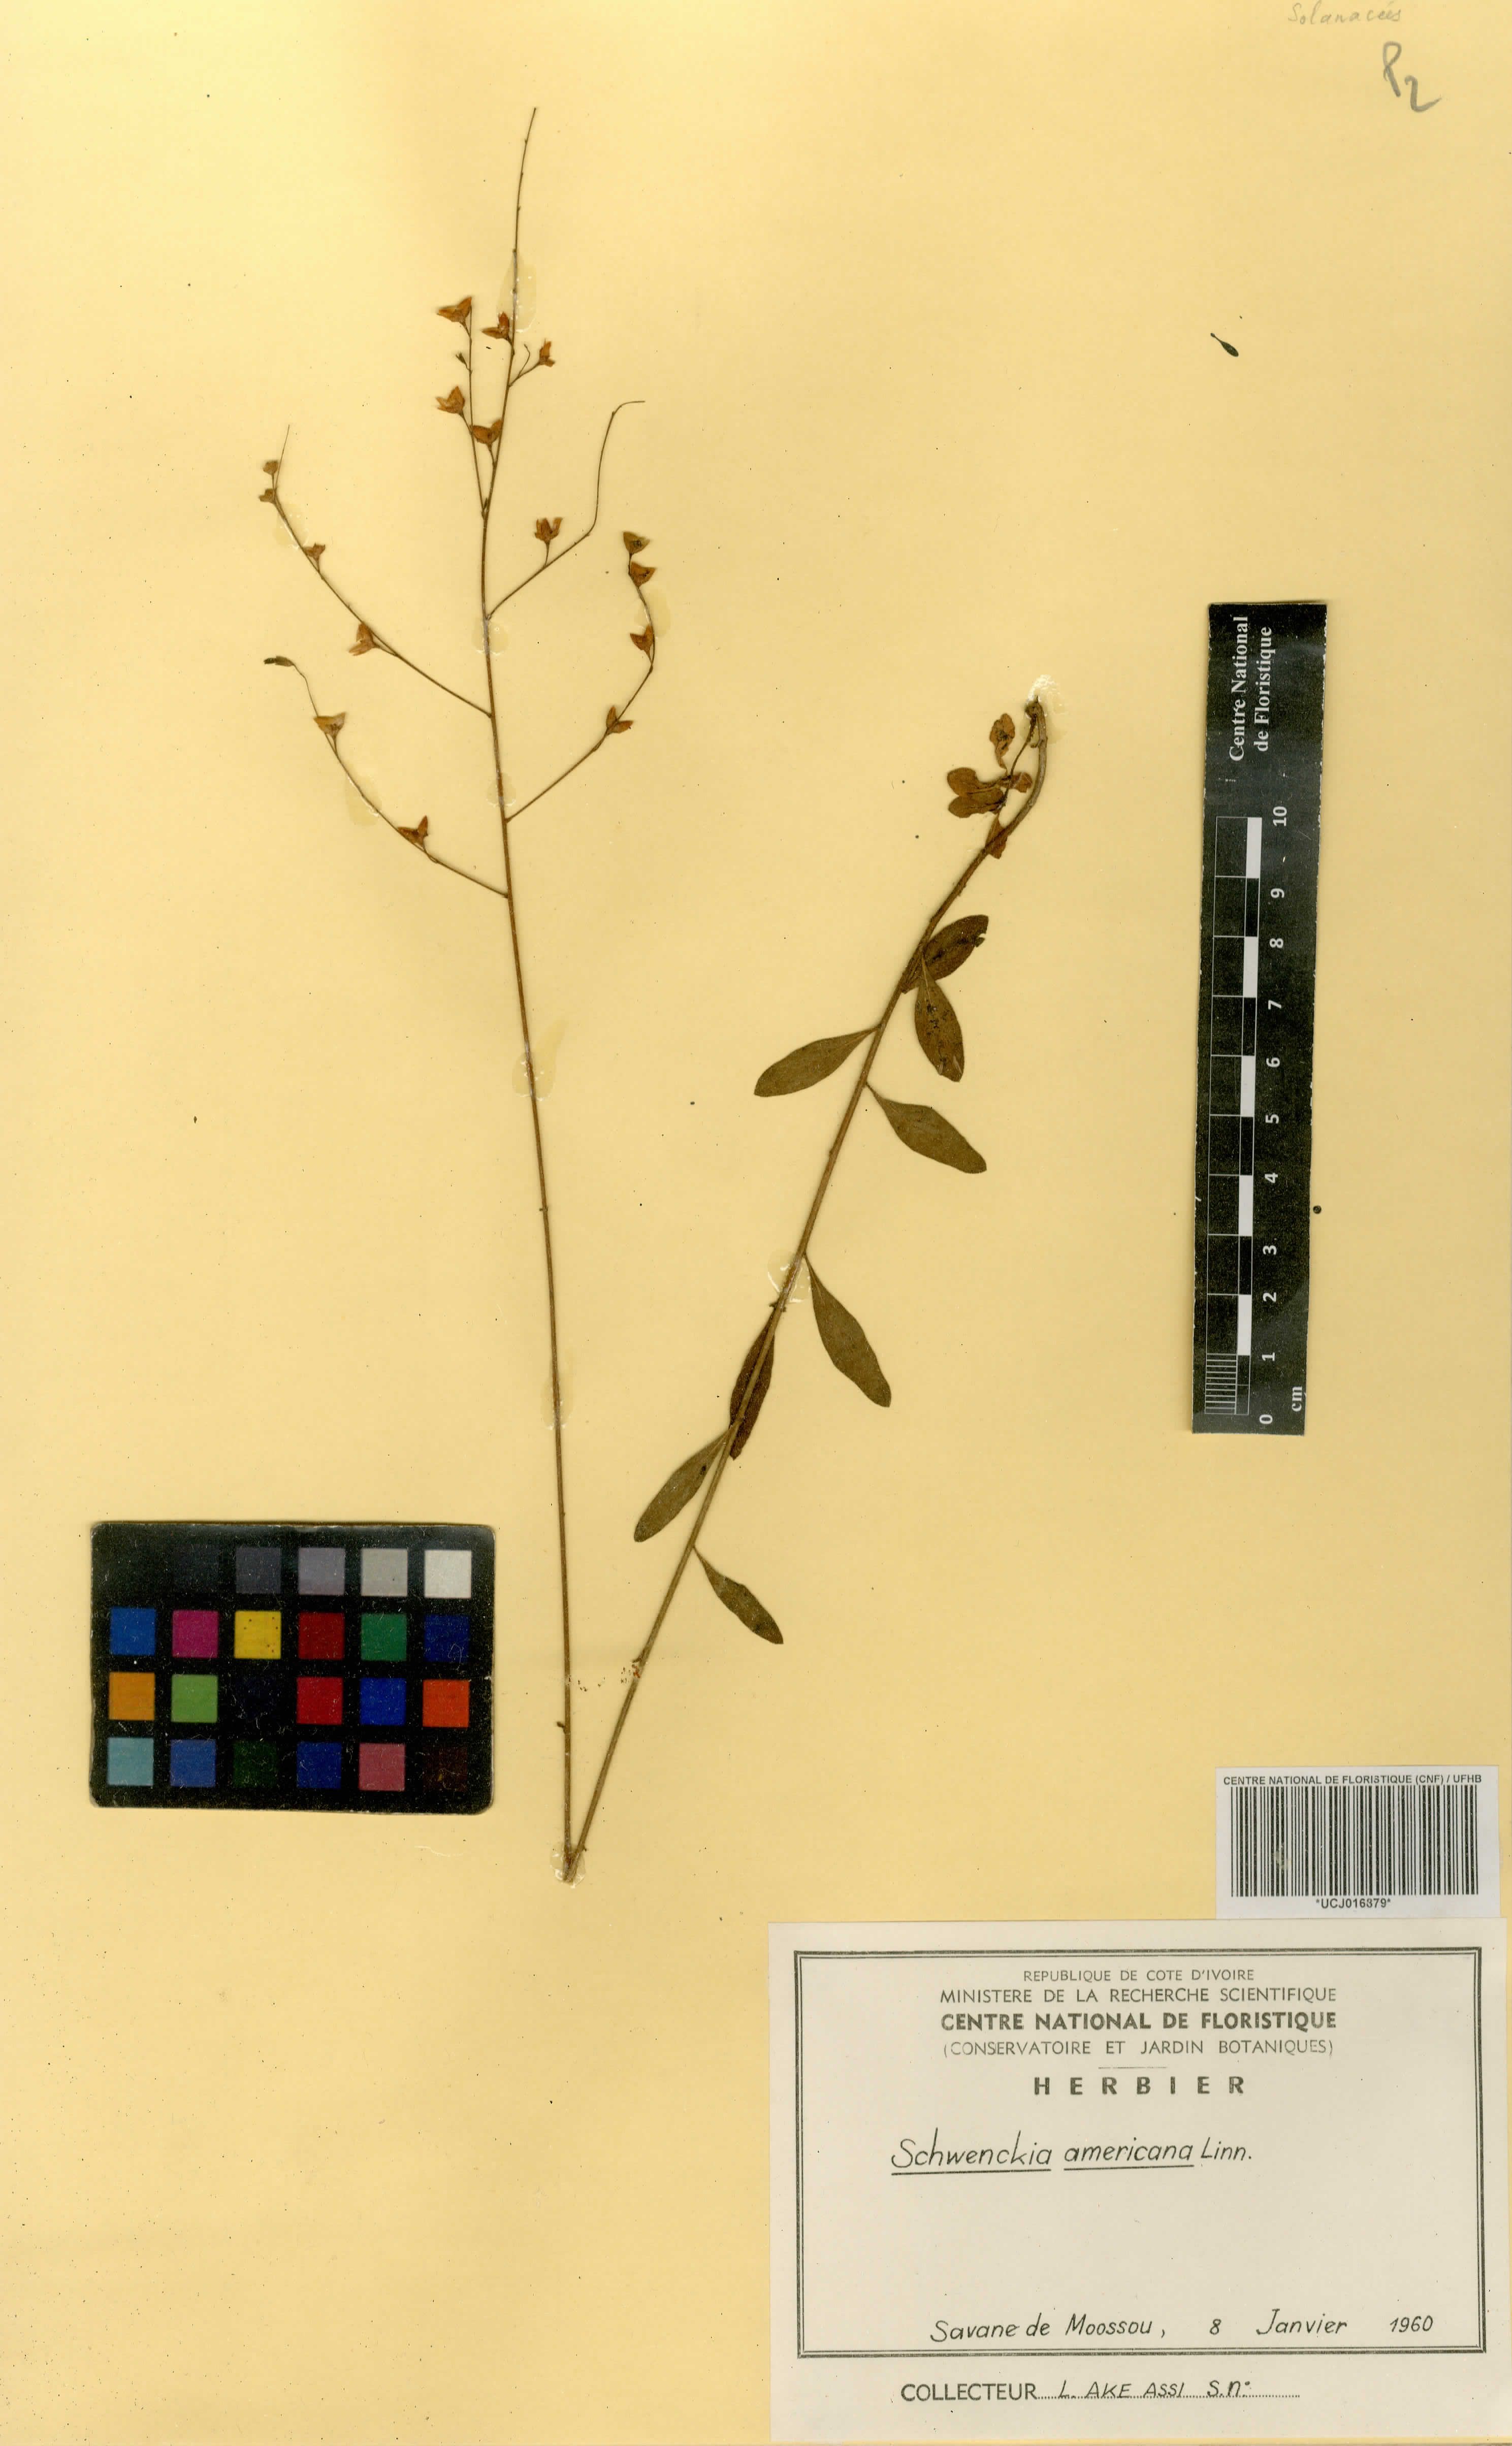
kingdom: Plantae
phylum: Tracheophyta
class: Magnoliopsida
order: Solanales
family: Solanaceae
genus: Schwenckia
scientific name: Schwenckia americana
